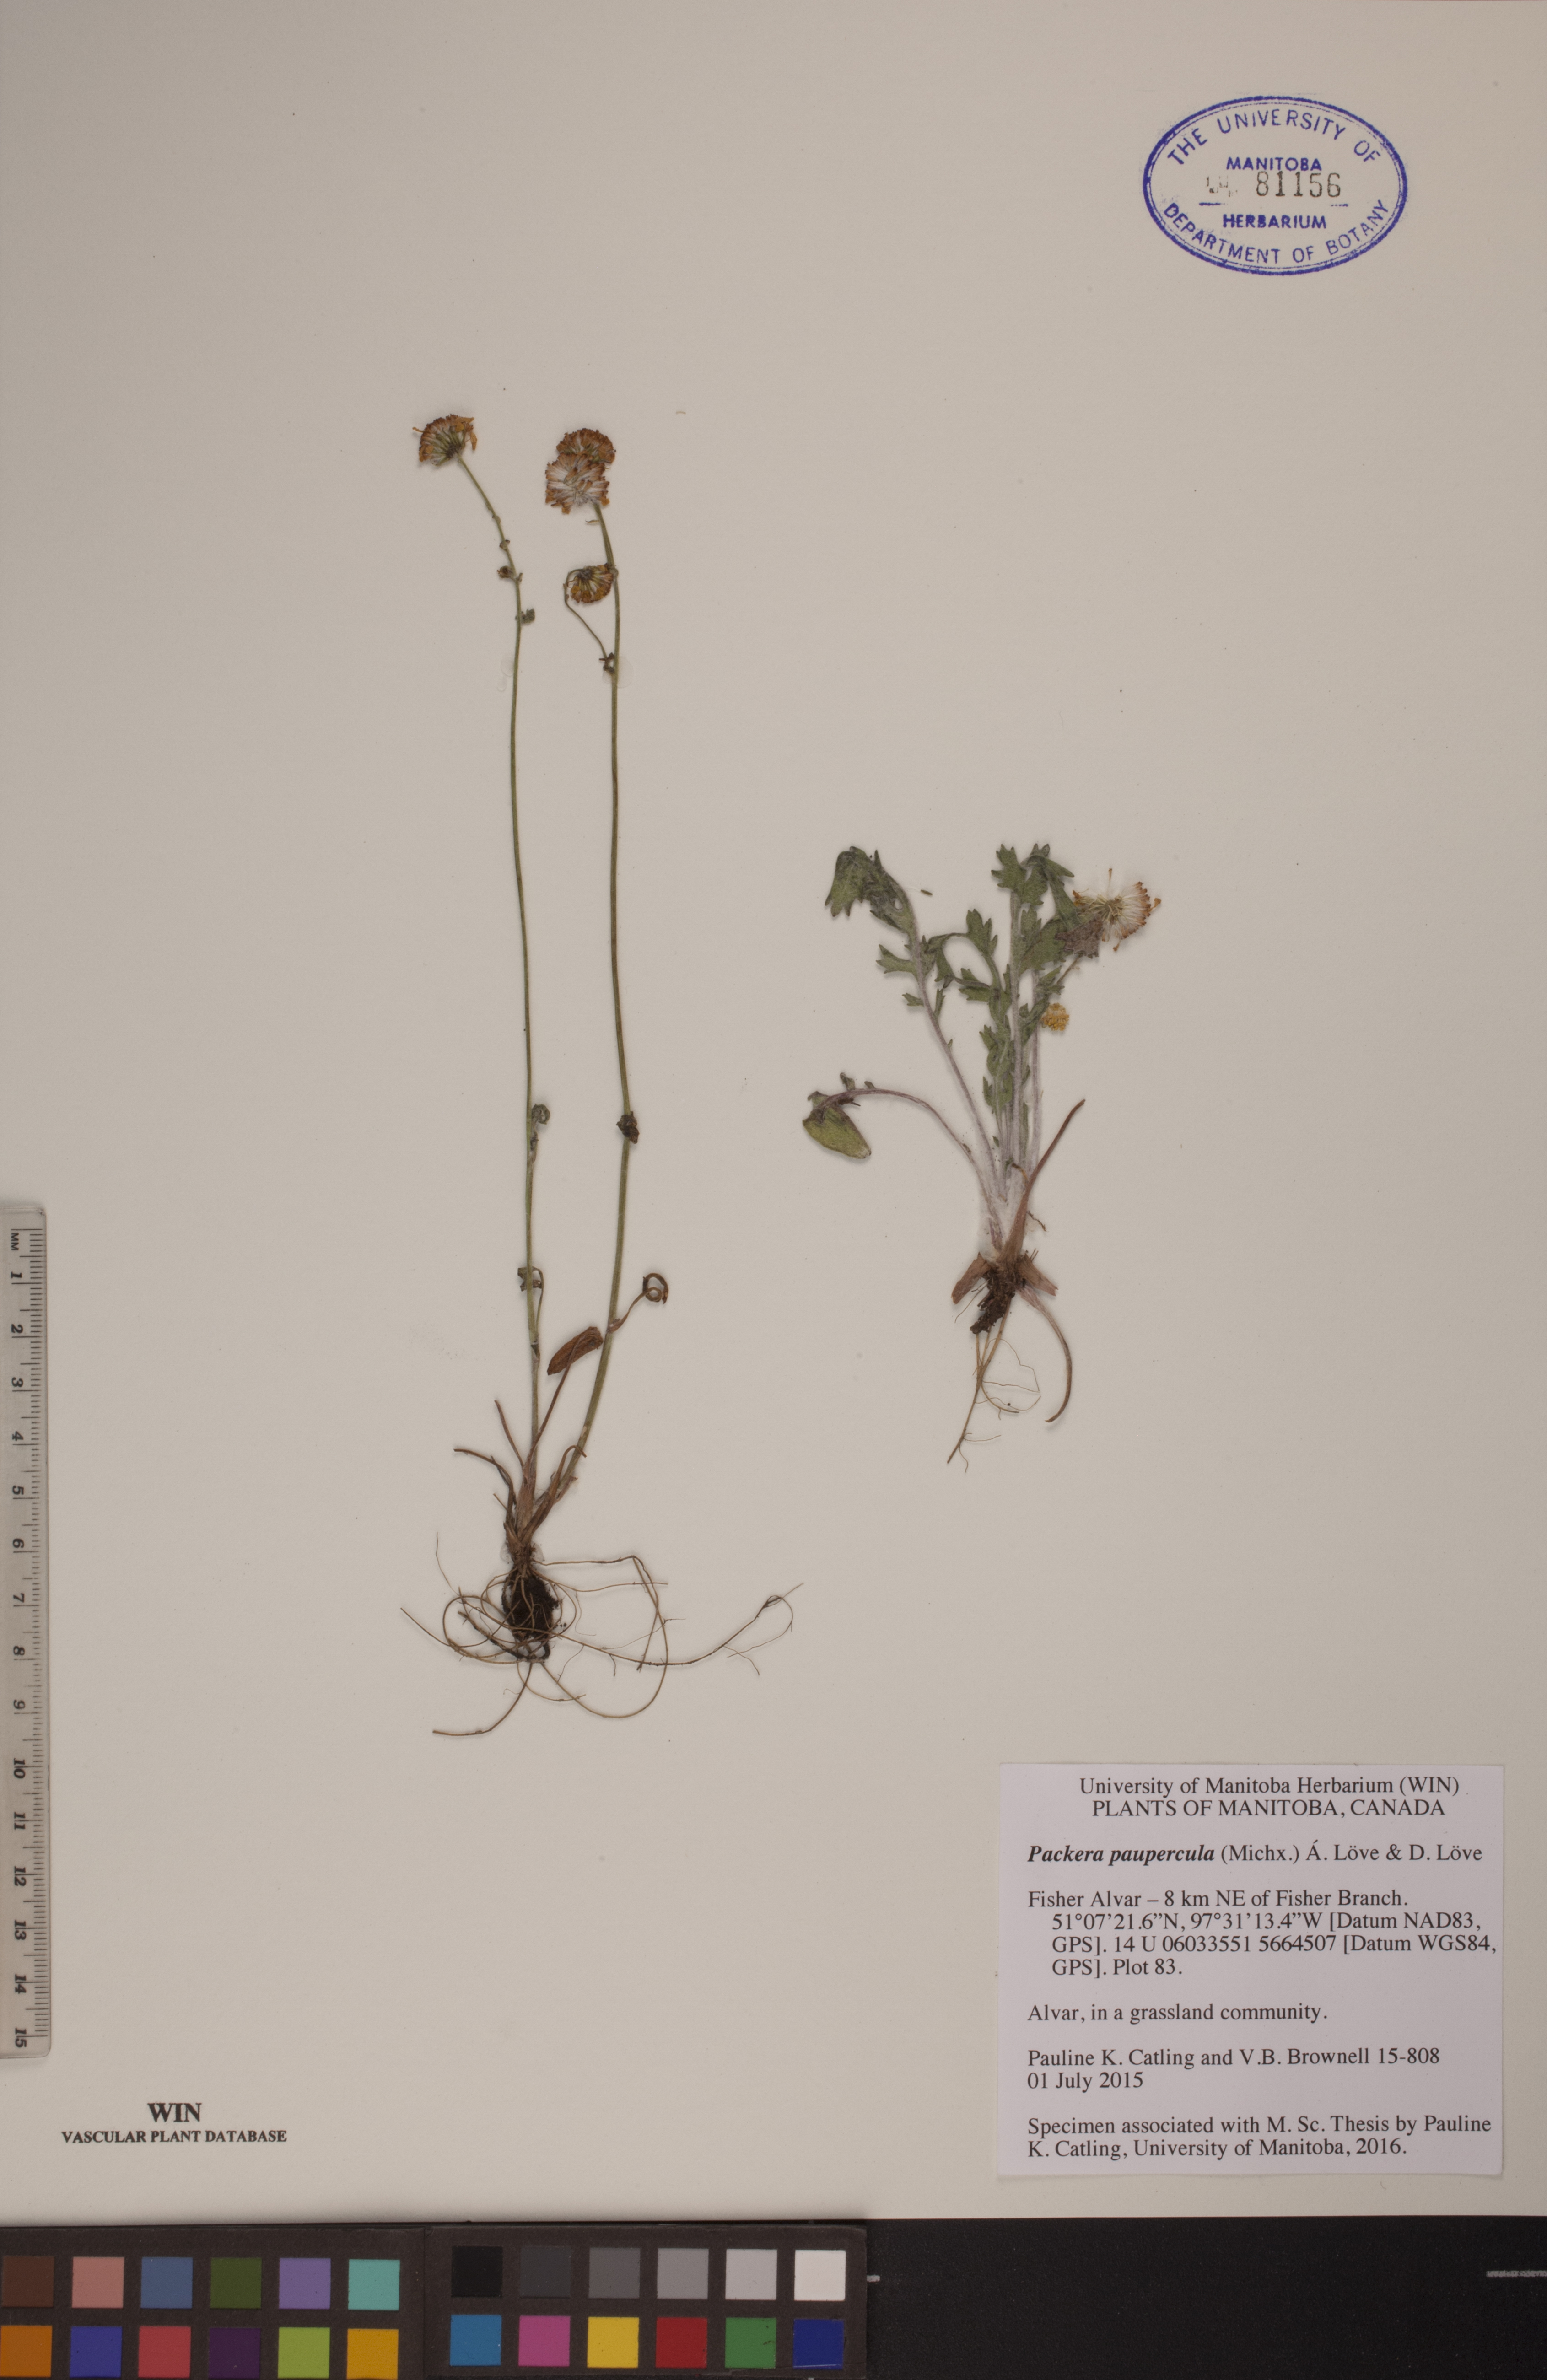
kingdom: Plantae
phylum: Tracheophyta
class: Magnoliopsida
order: Asterales
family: Asteraceae
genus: Packera
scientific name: Packera paupercula
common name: Balsam groundsel
